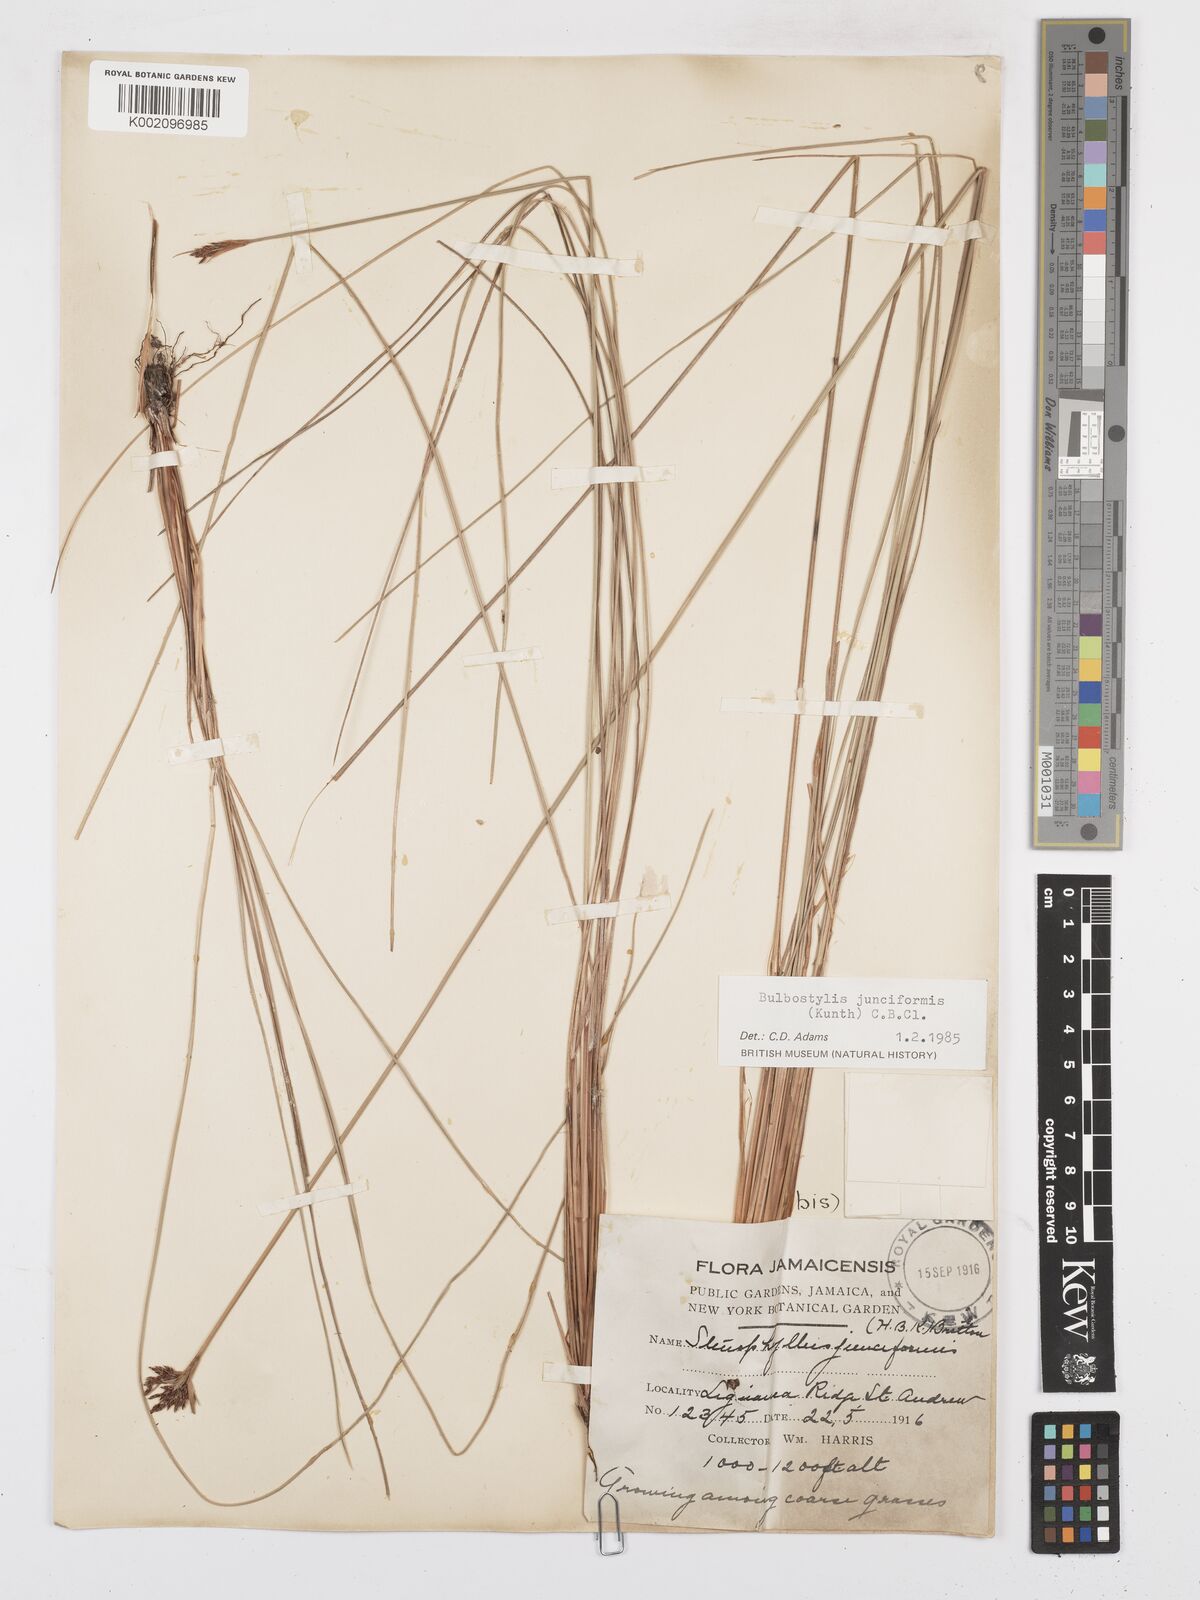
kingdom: Plantae
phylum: Tracheophyta
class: Liliopsida
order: Poales
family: Cyperaceae
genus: Bulbostylis
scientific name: Bulbostylis junciformis
